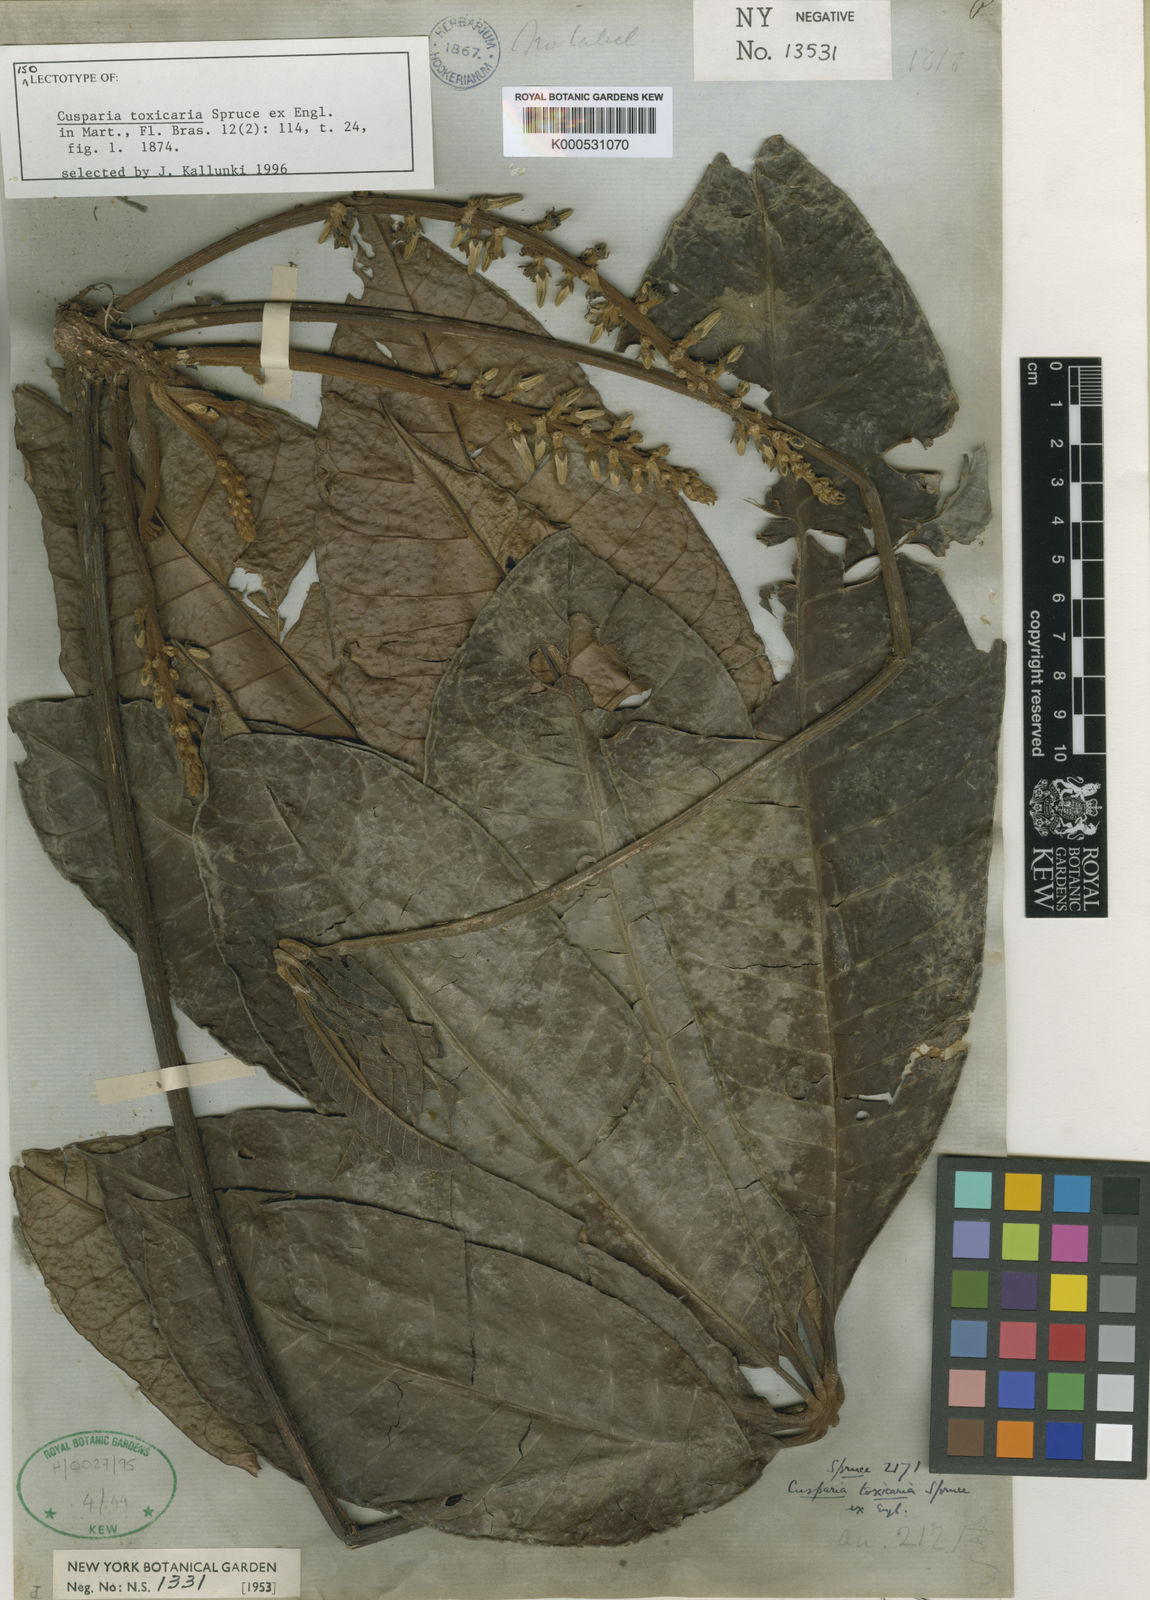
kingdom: Plantae
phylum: Tracheophyta
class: Magnoliopsida
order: Sapindales
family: Rutaceae
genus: Conchocarpus
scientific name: Conchocarpus toxicarius
